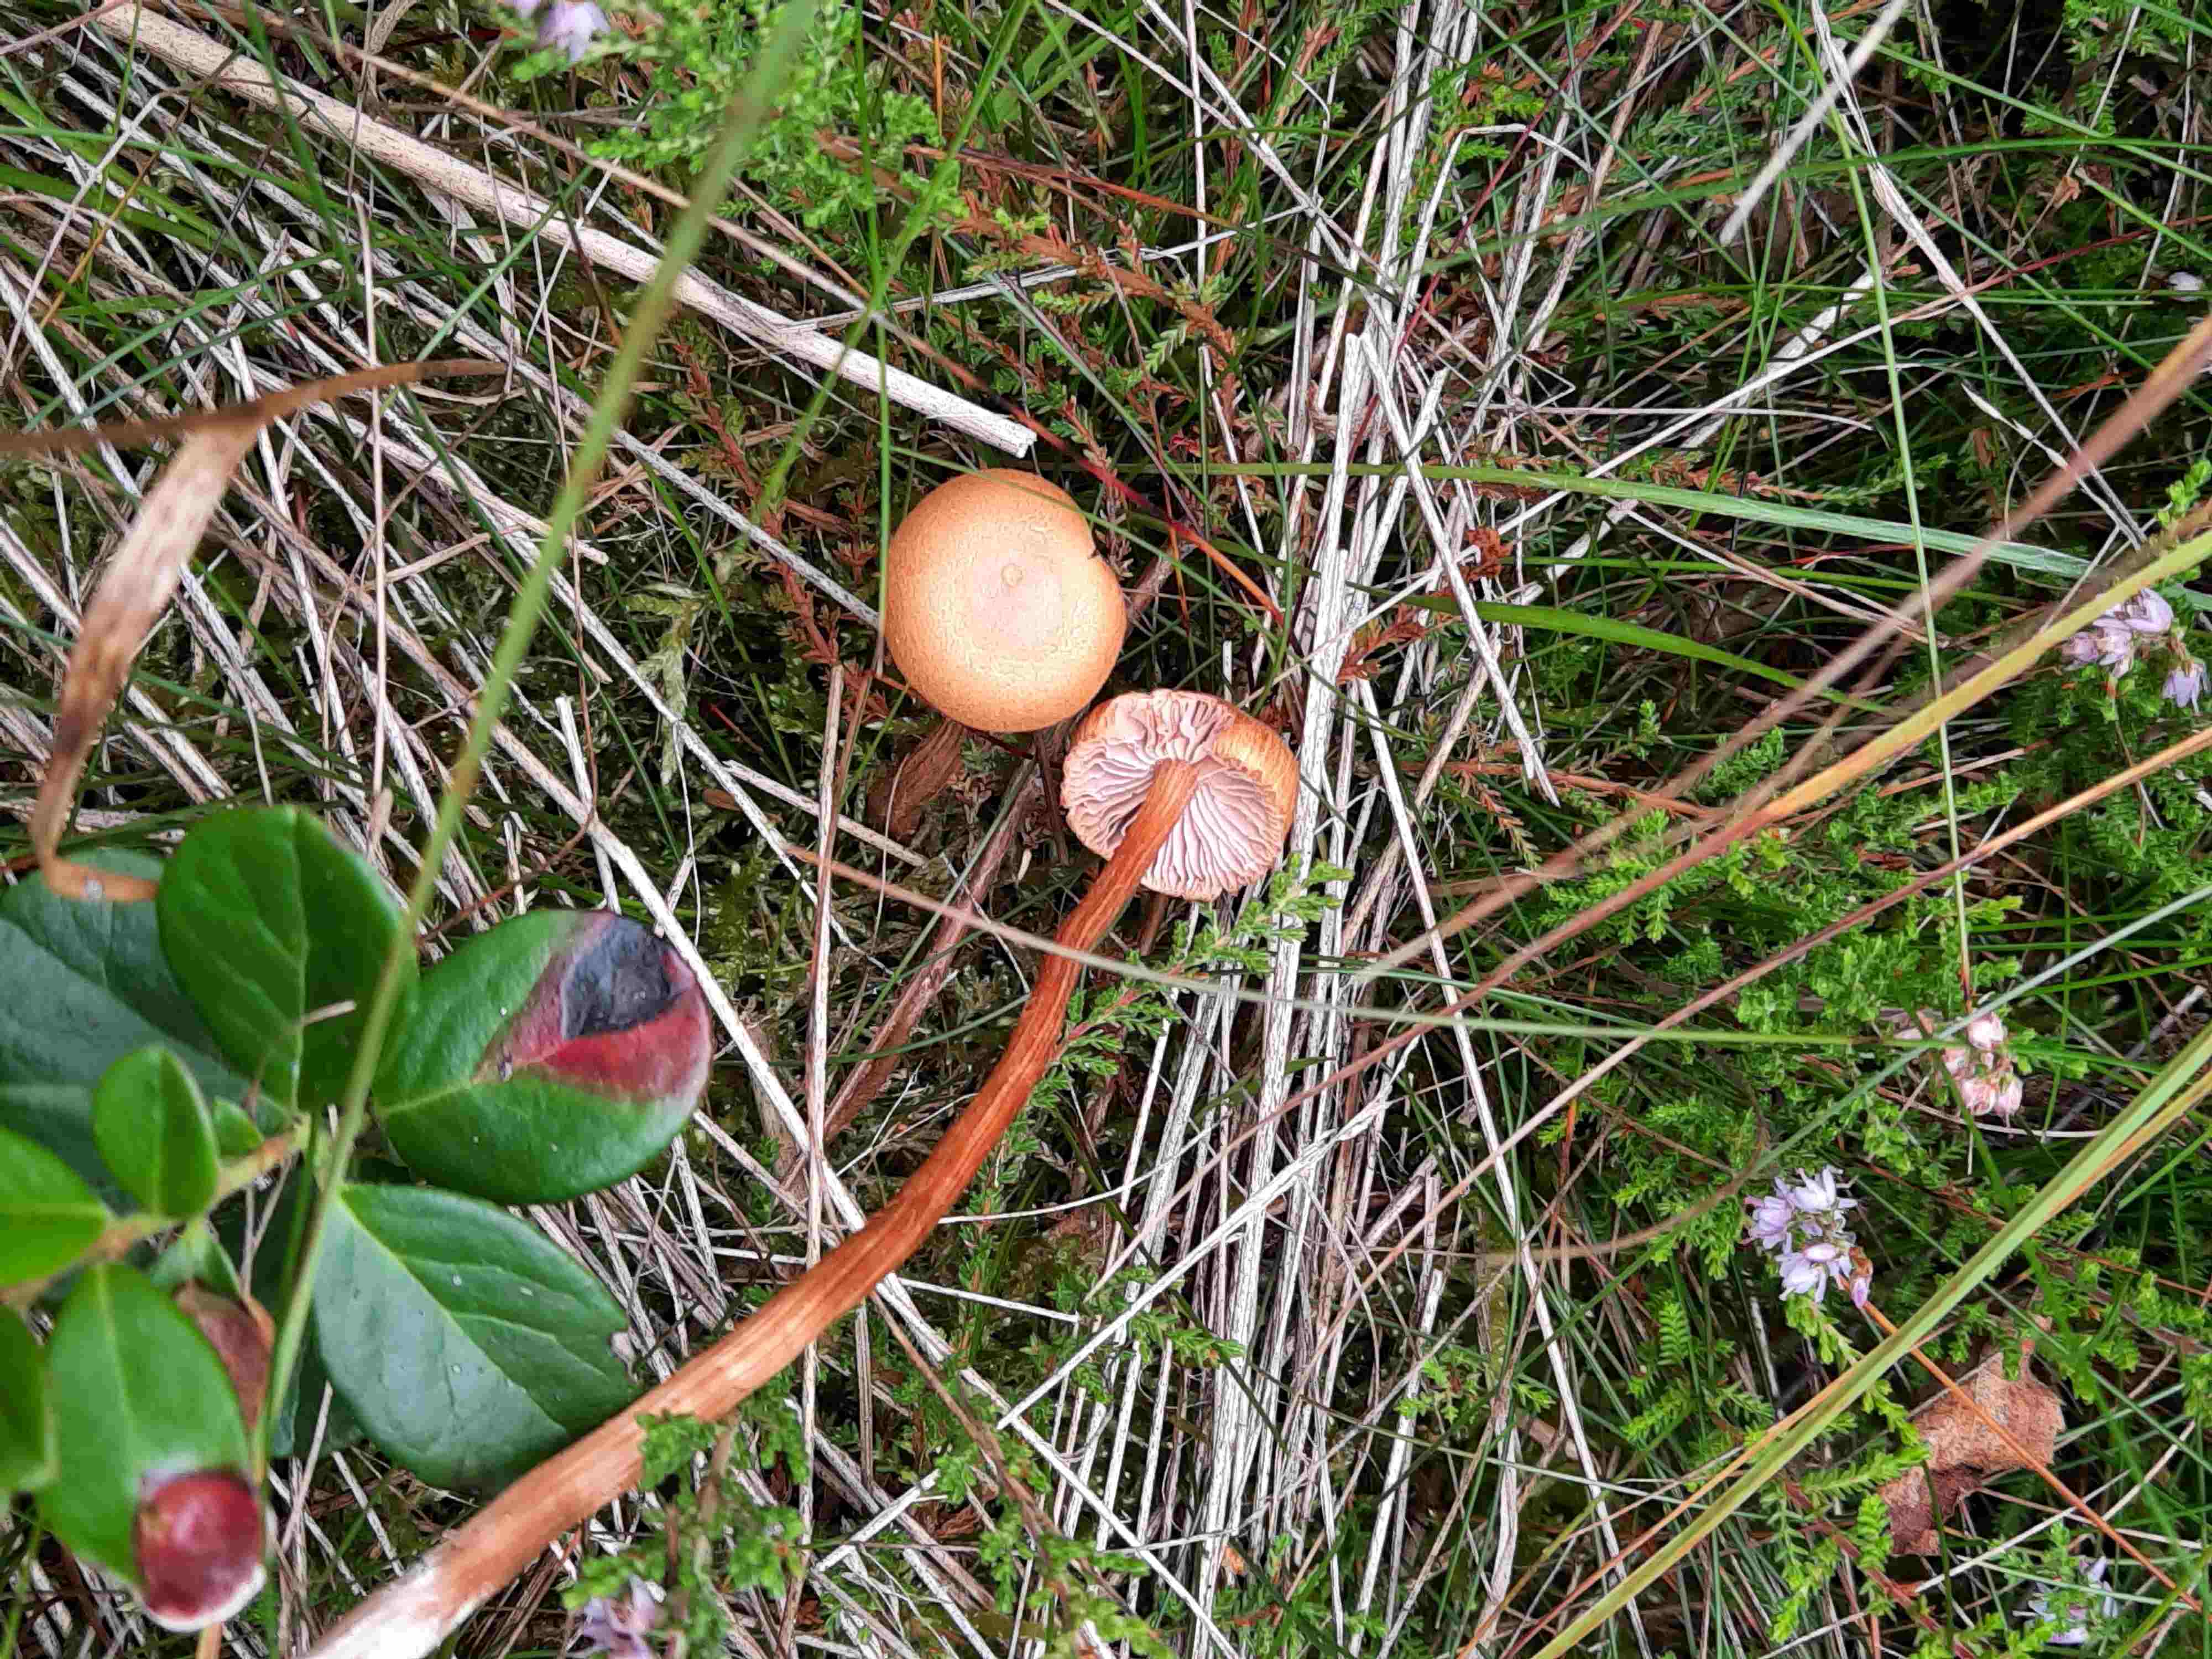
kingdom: Fungi
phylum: Basidiomycota
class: Agaricomycetes
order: Agaricales
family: Hydnangiaceae
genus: Laccaria
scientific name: Laccaria proxima
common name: stor ametysthat
